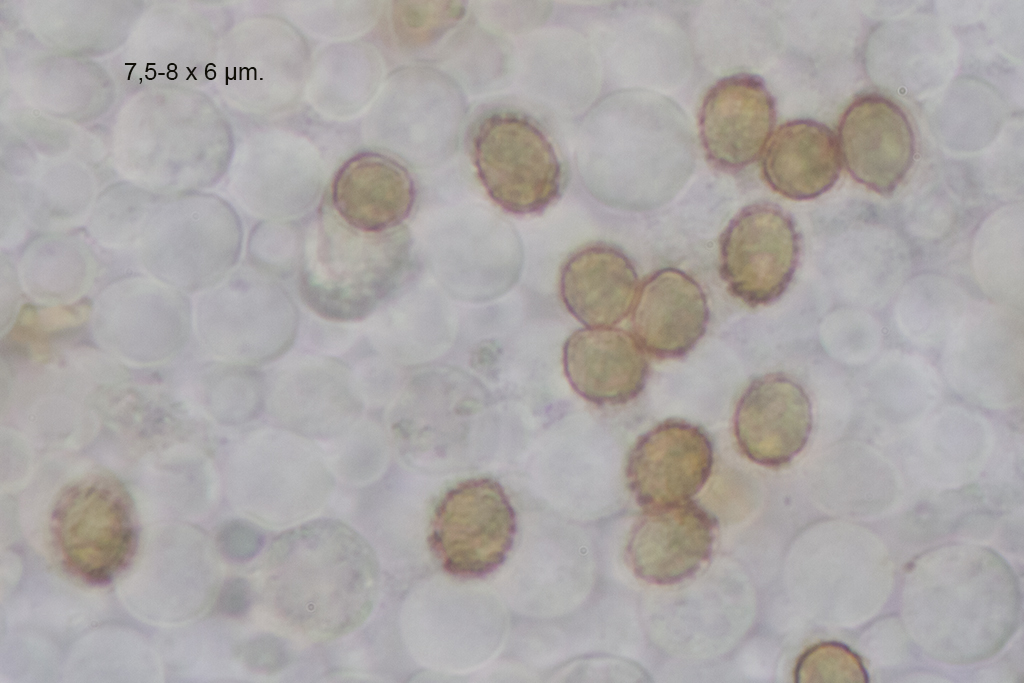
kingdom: Fungi
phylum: Basidiomycota
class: Agaricomycetes
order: Agaricales
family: Cortinariaceae
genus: Cortinarius
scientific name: Cortinarius
